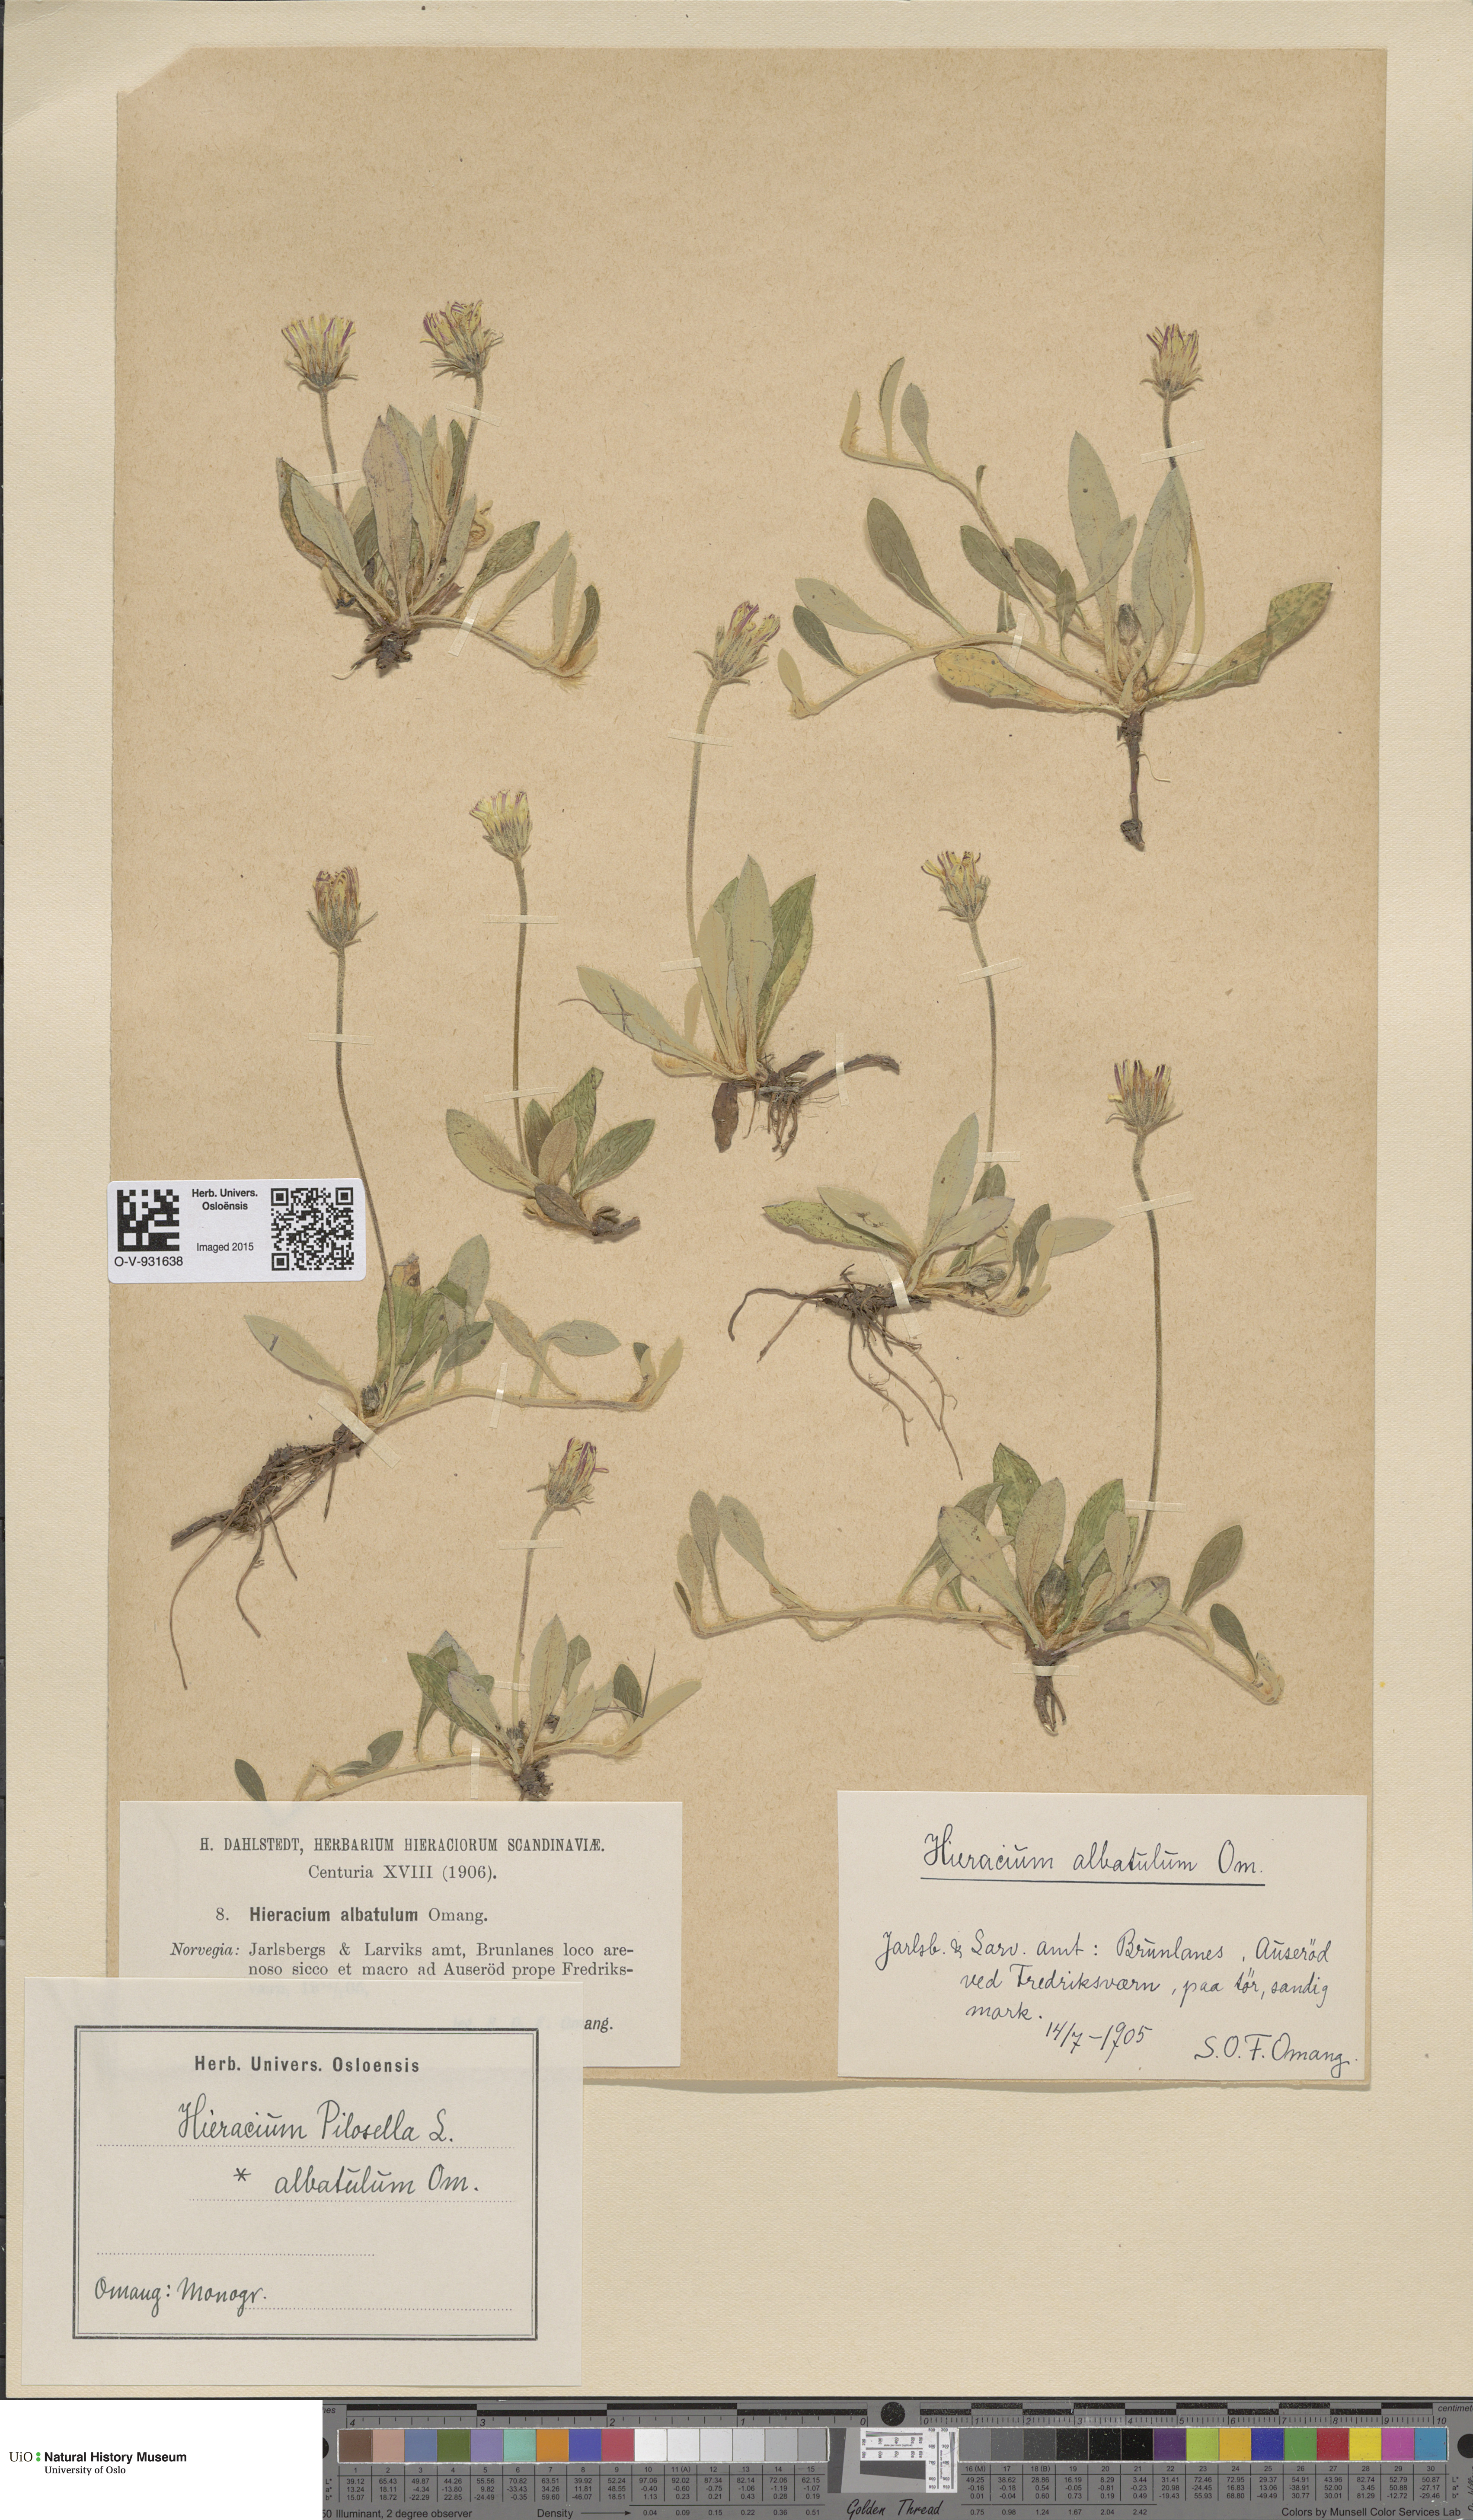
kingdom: Plantae
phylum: Tracheophyta
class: Magnoliopsida
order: Asterales
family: Asteraceae
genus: Pilosella
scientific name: Pilosella officinarum
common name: Mouse-ear hawkweed
